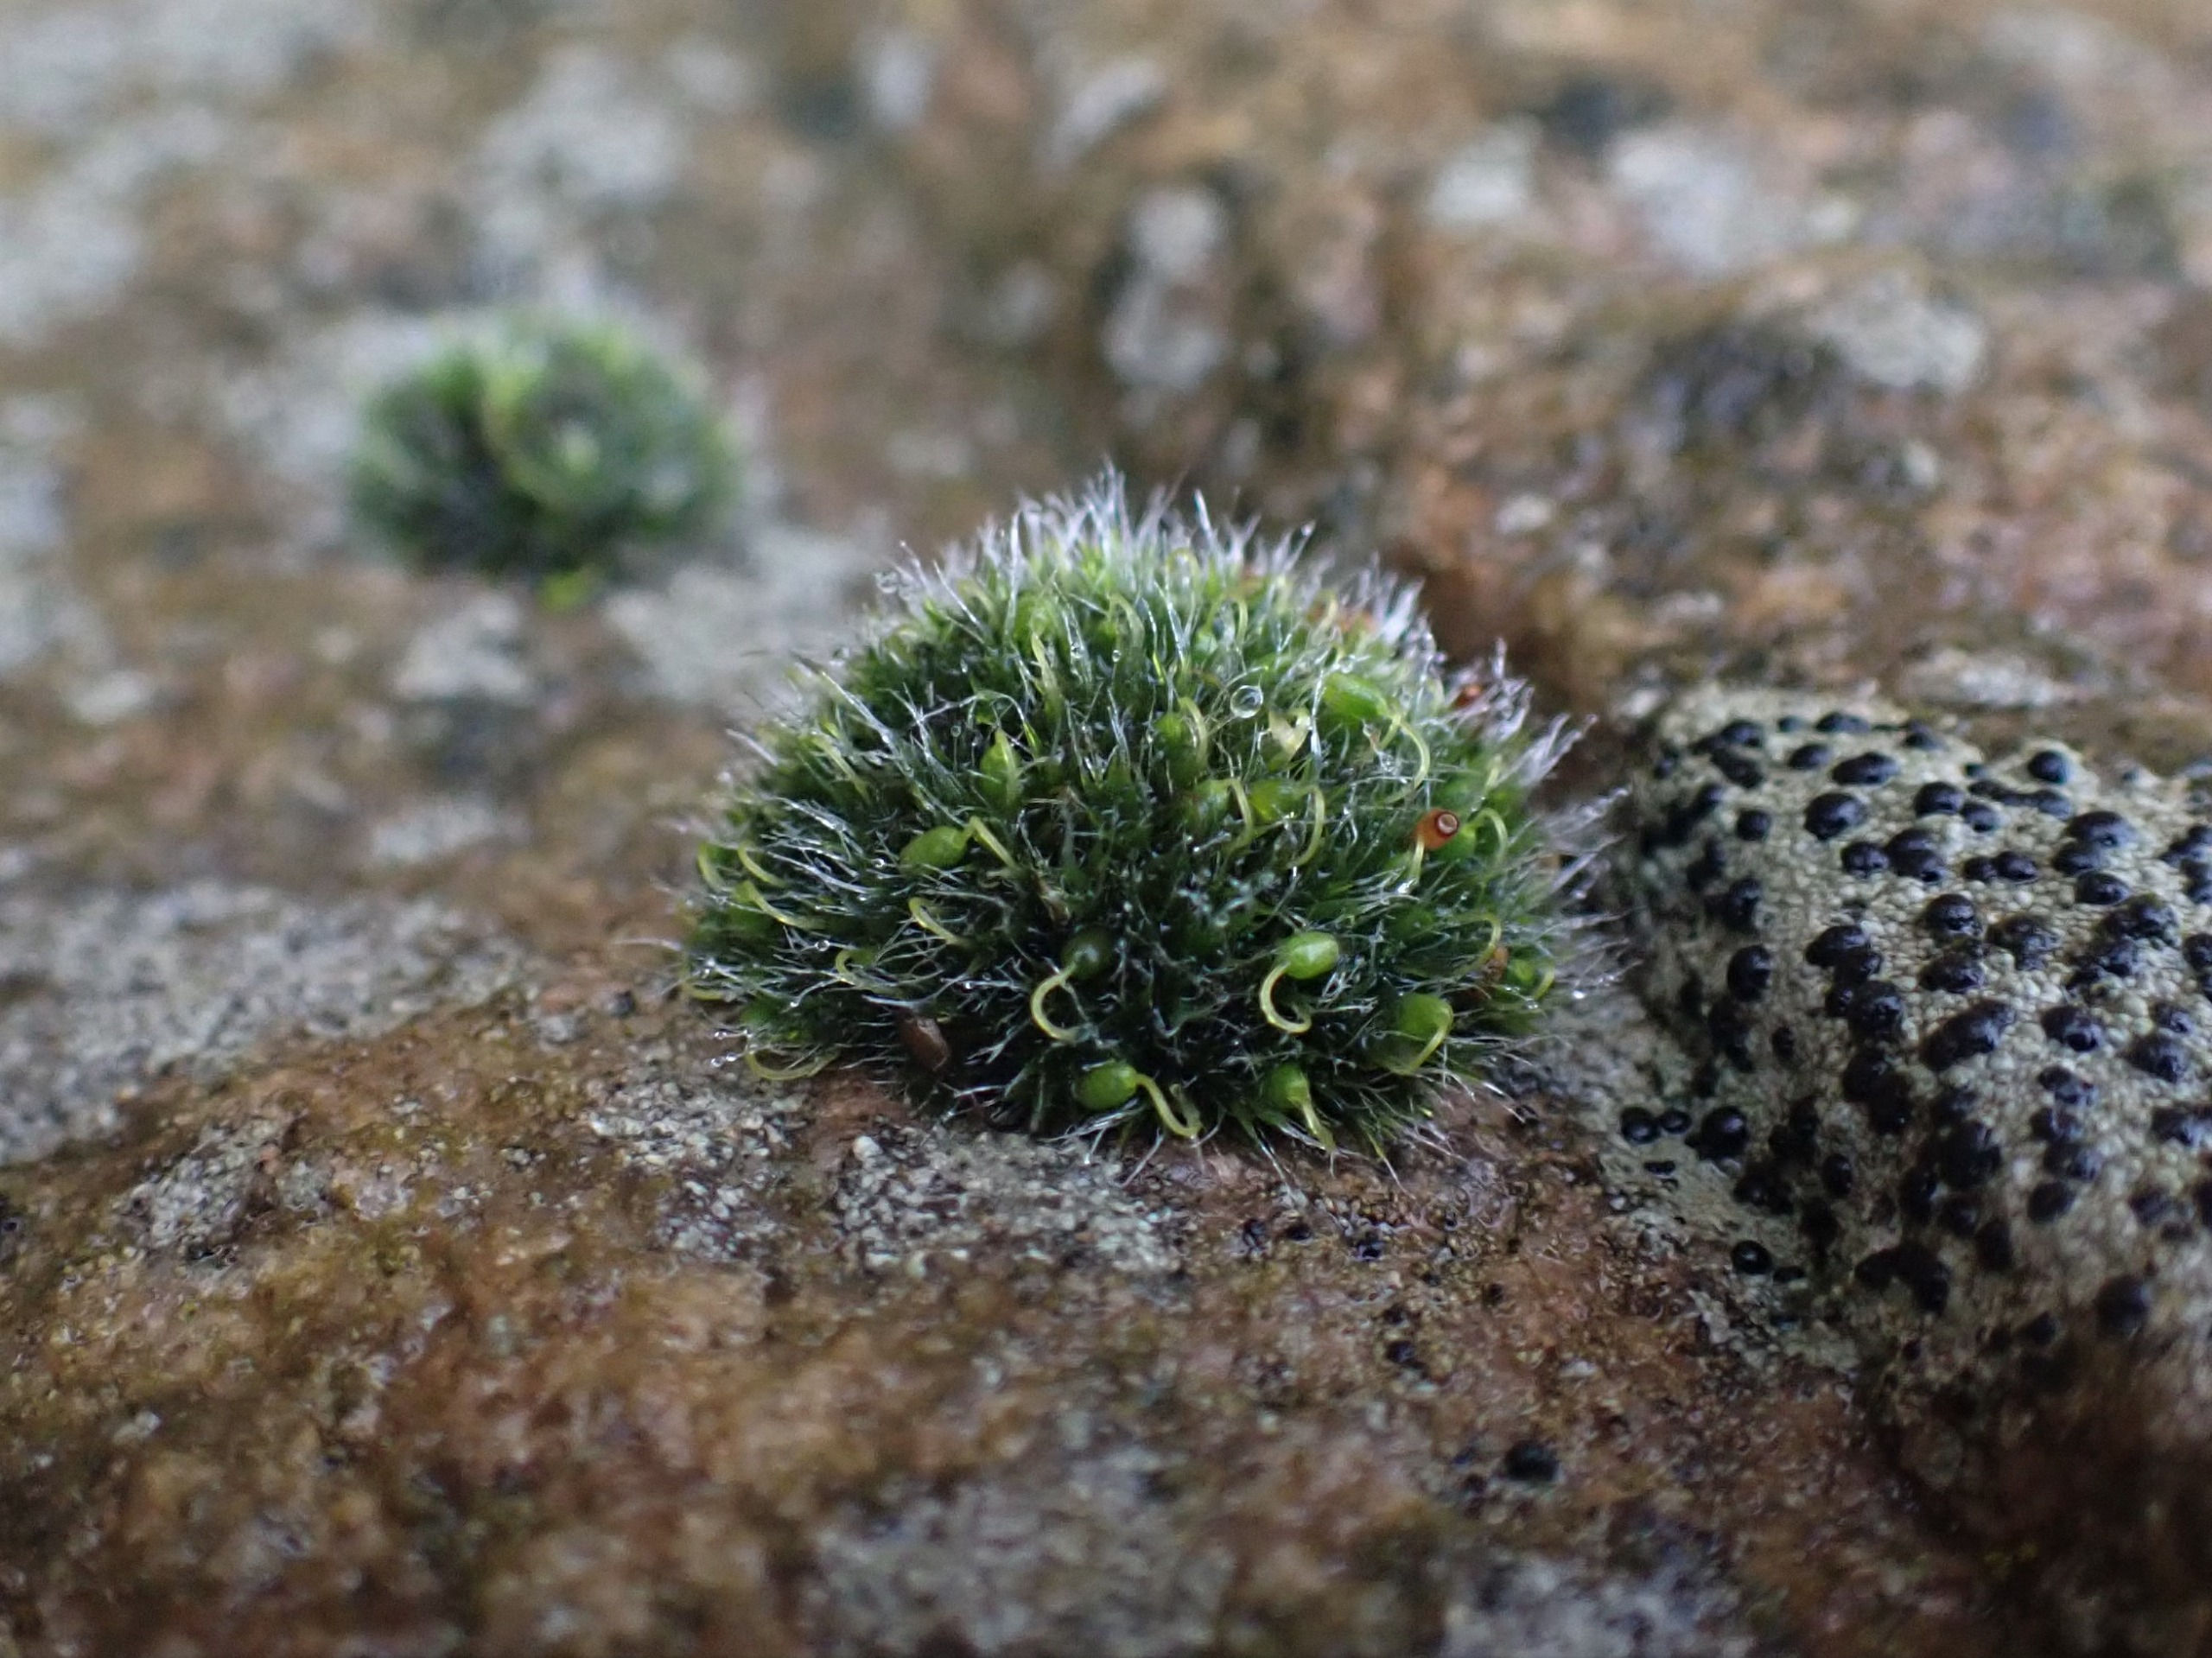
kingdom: Plantae
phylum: Bryophyta
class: Bryopsida
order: Grimmiales
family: Grimmiaceae
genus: Grimmia
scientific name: Grimmia pulvinata
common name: Pude-gråmos
